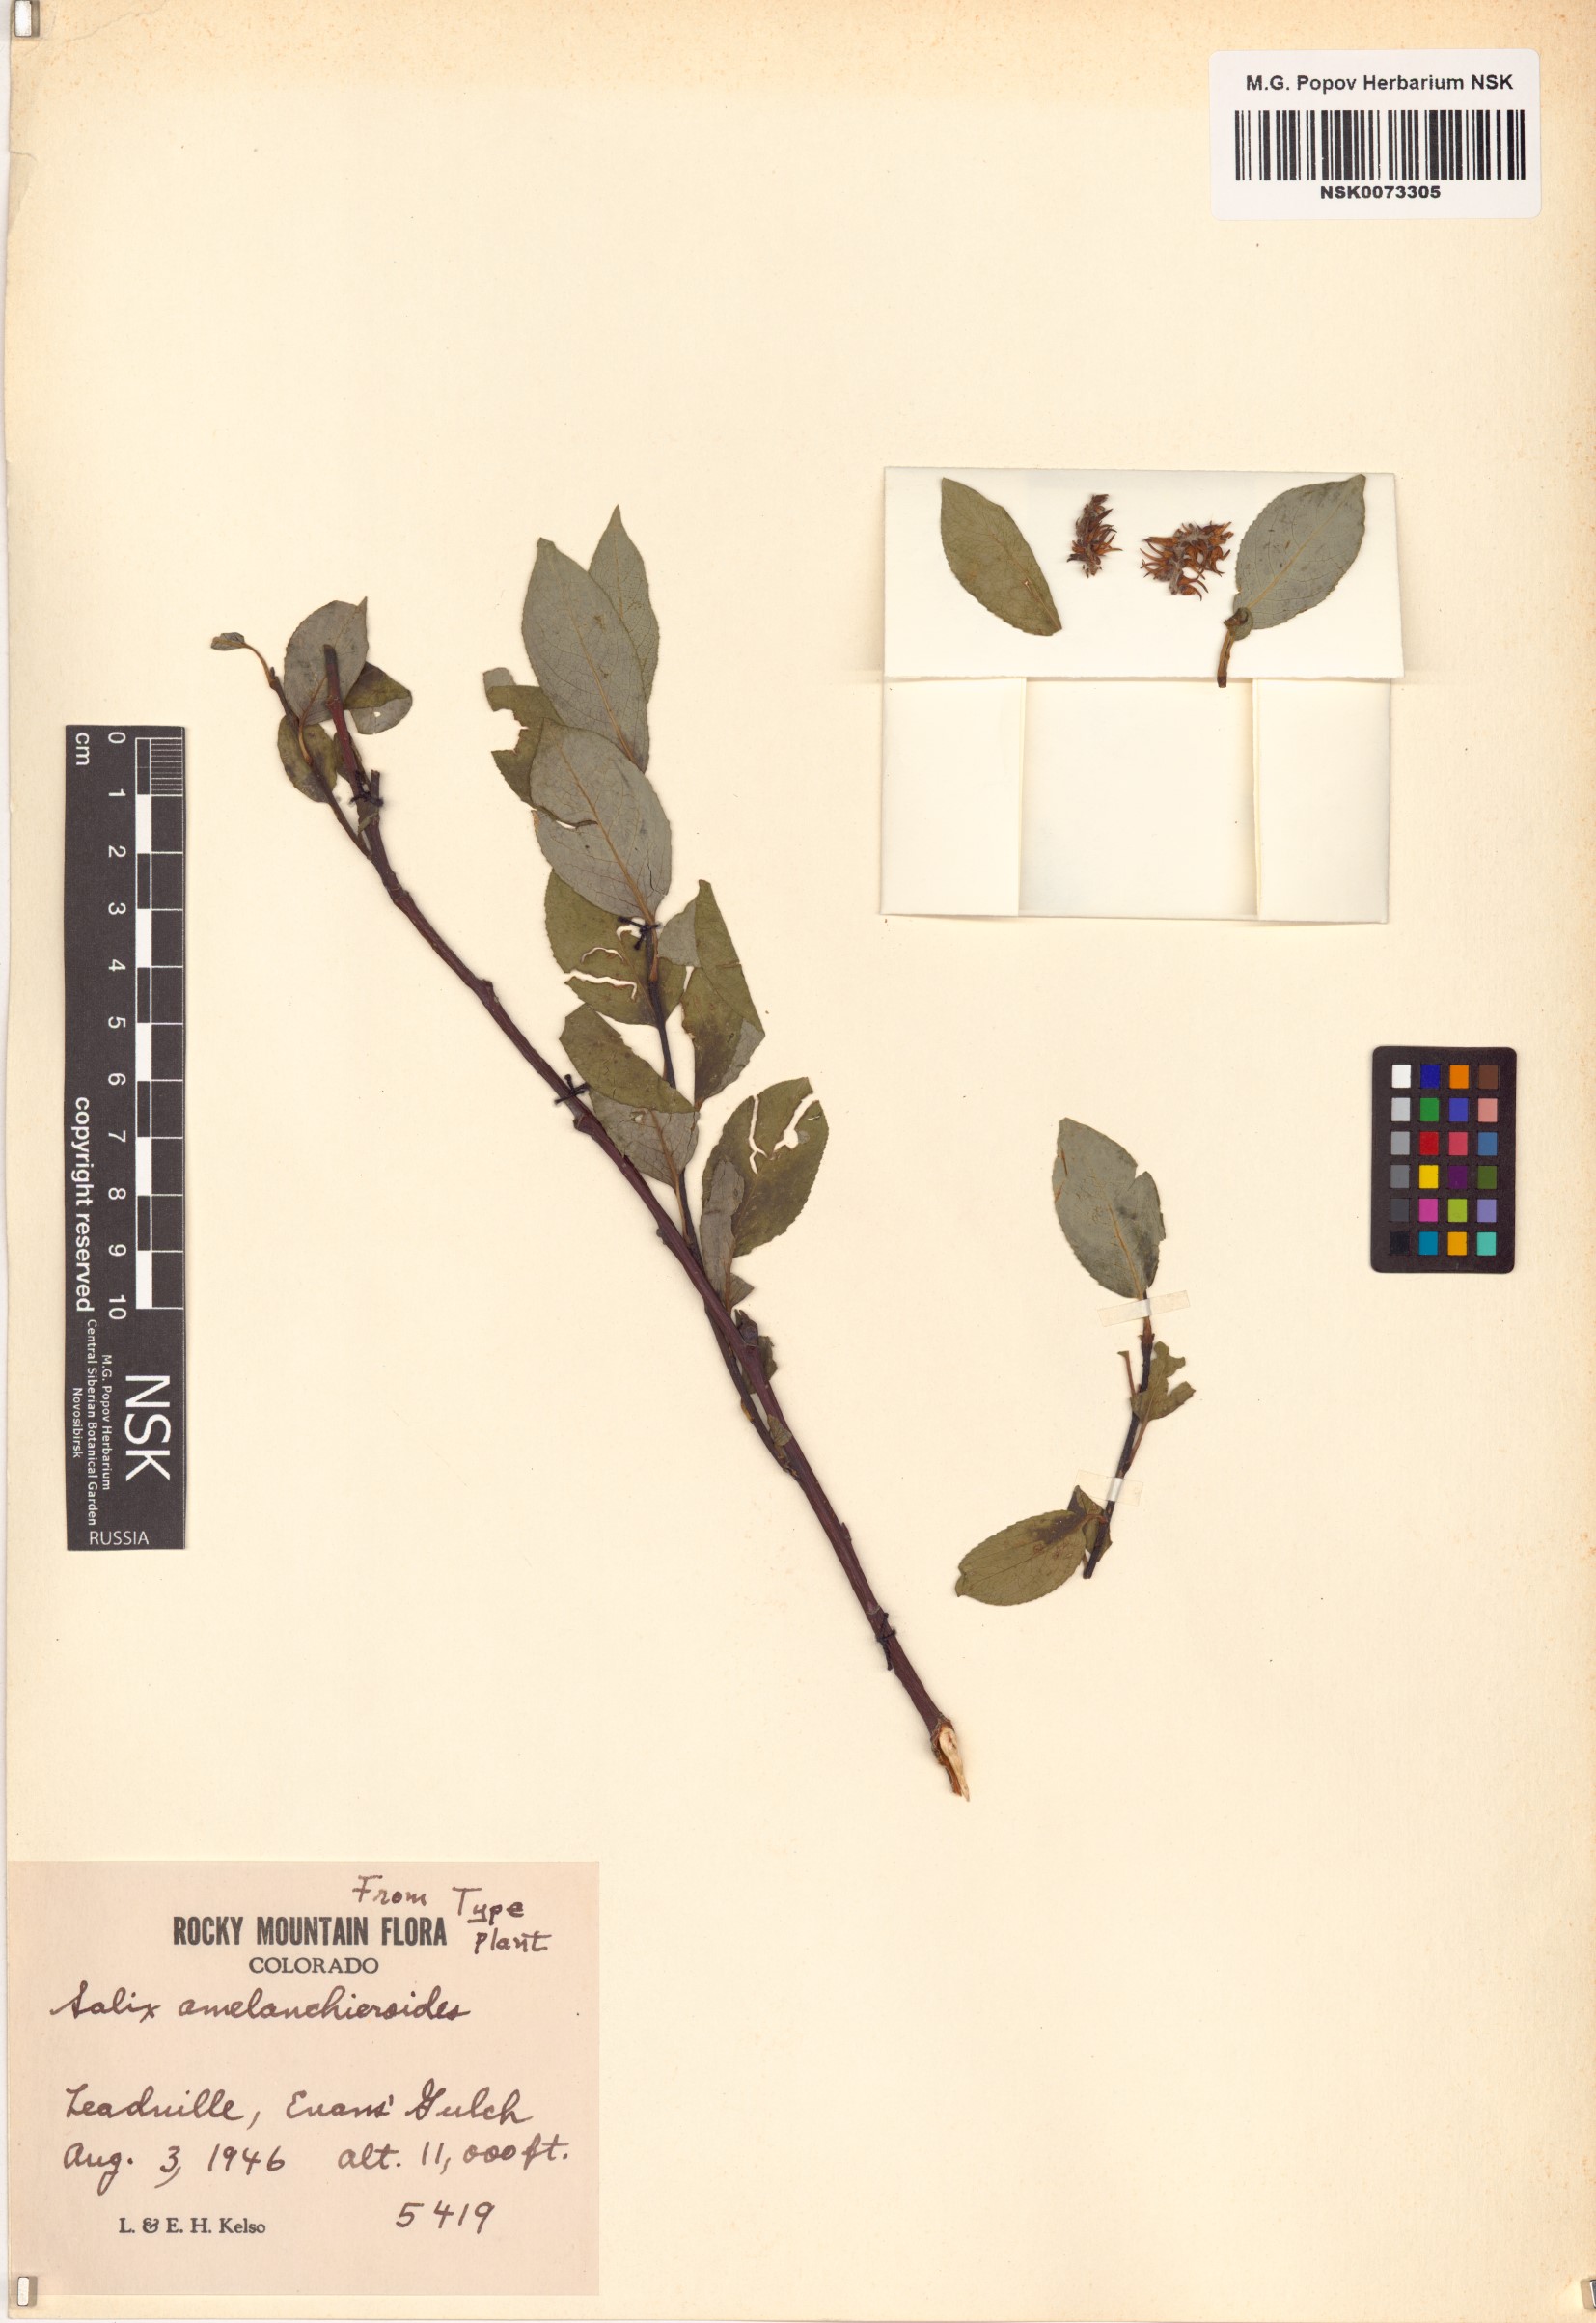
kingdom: Plantae
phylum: Tracheophyta
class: Magnoliopsida
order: Malpighiales
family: Salicaceae
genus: Salix
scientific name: Salix monticola
